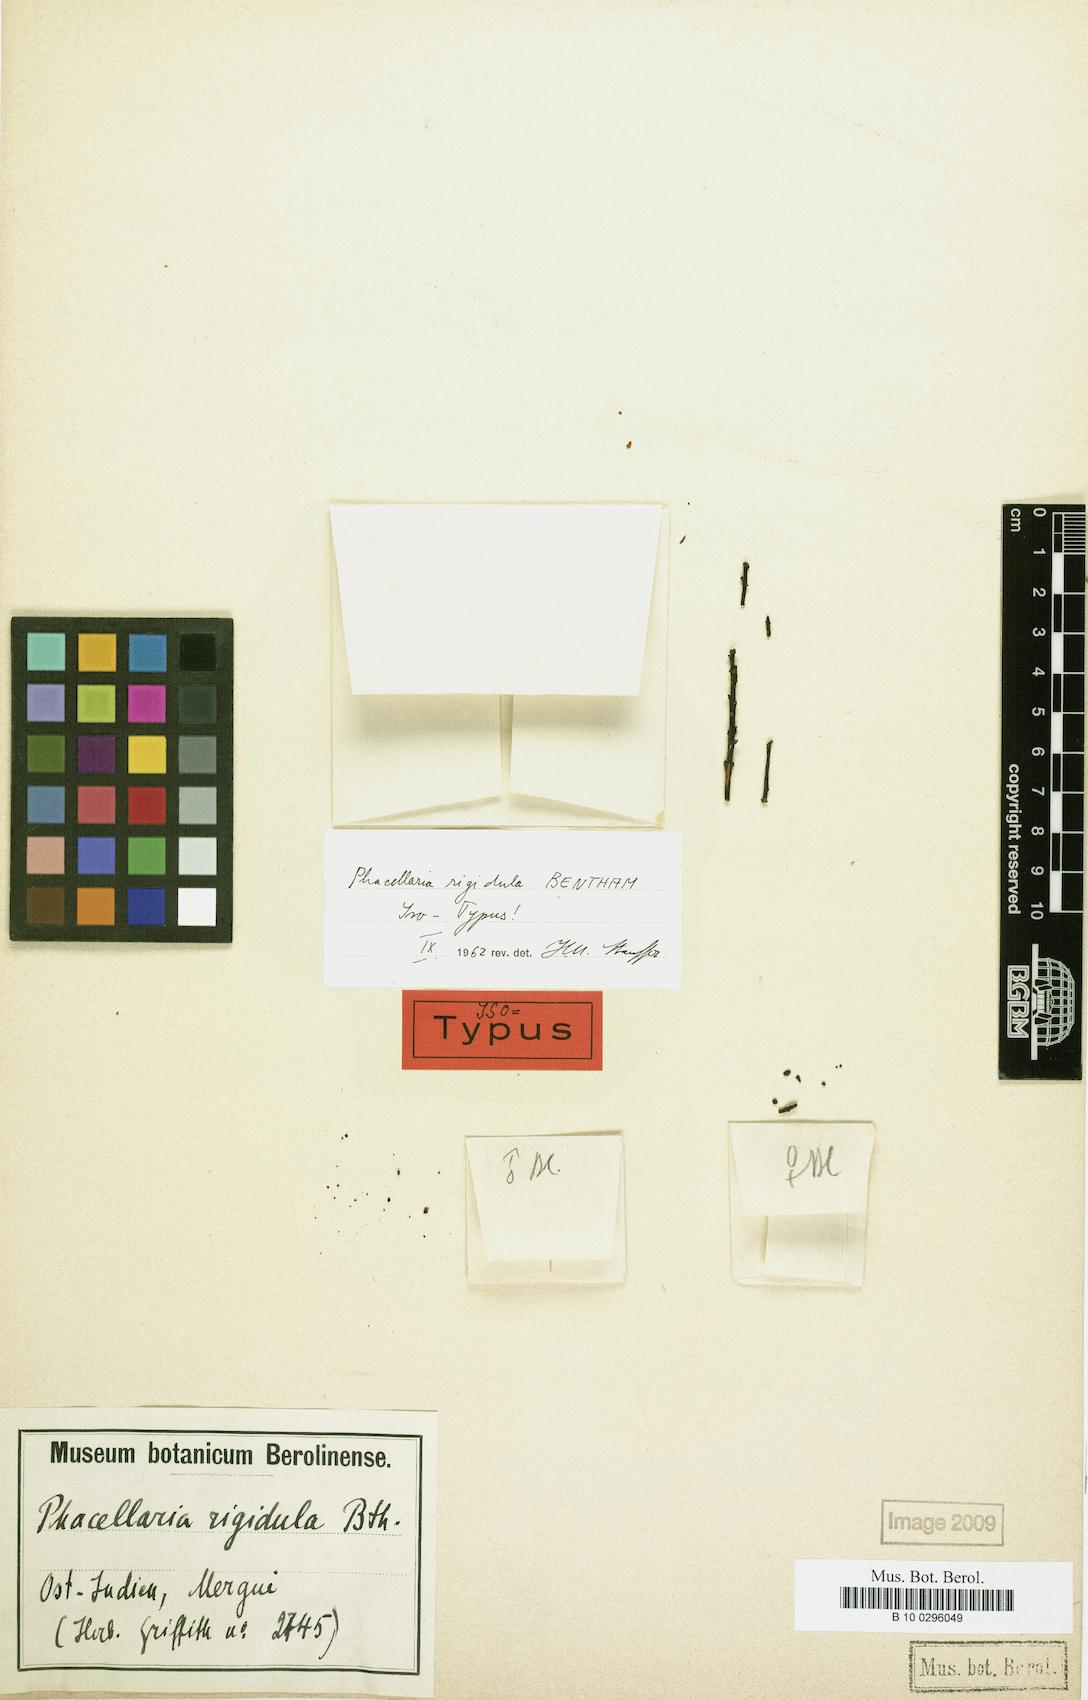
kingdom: Plantae
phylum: Tracheophyta
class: Magnoliopsida
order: Santalales
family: Amphorogynaceae
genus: Phacellaria
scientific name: Phacellaria rigidula
